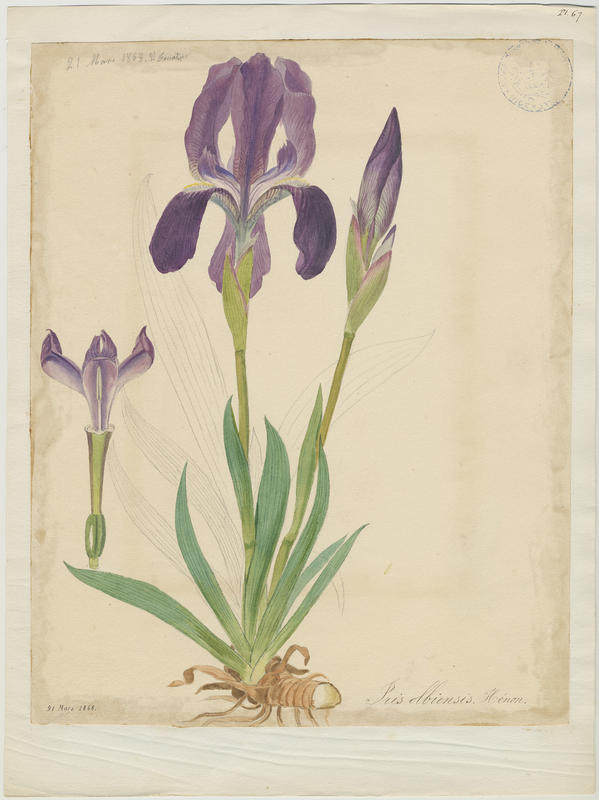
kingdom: Plantae
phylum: Tracheophyta
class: Liliopsida
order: Asparagales
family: Iridaceae
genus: Iris
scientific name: Iris lutescens
